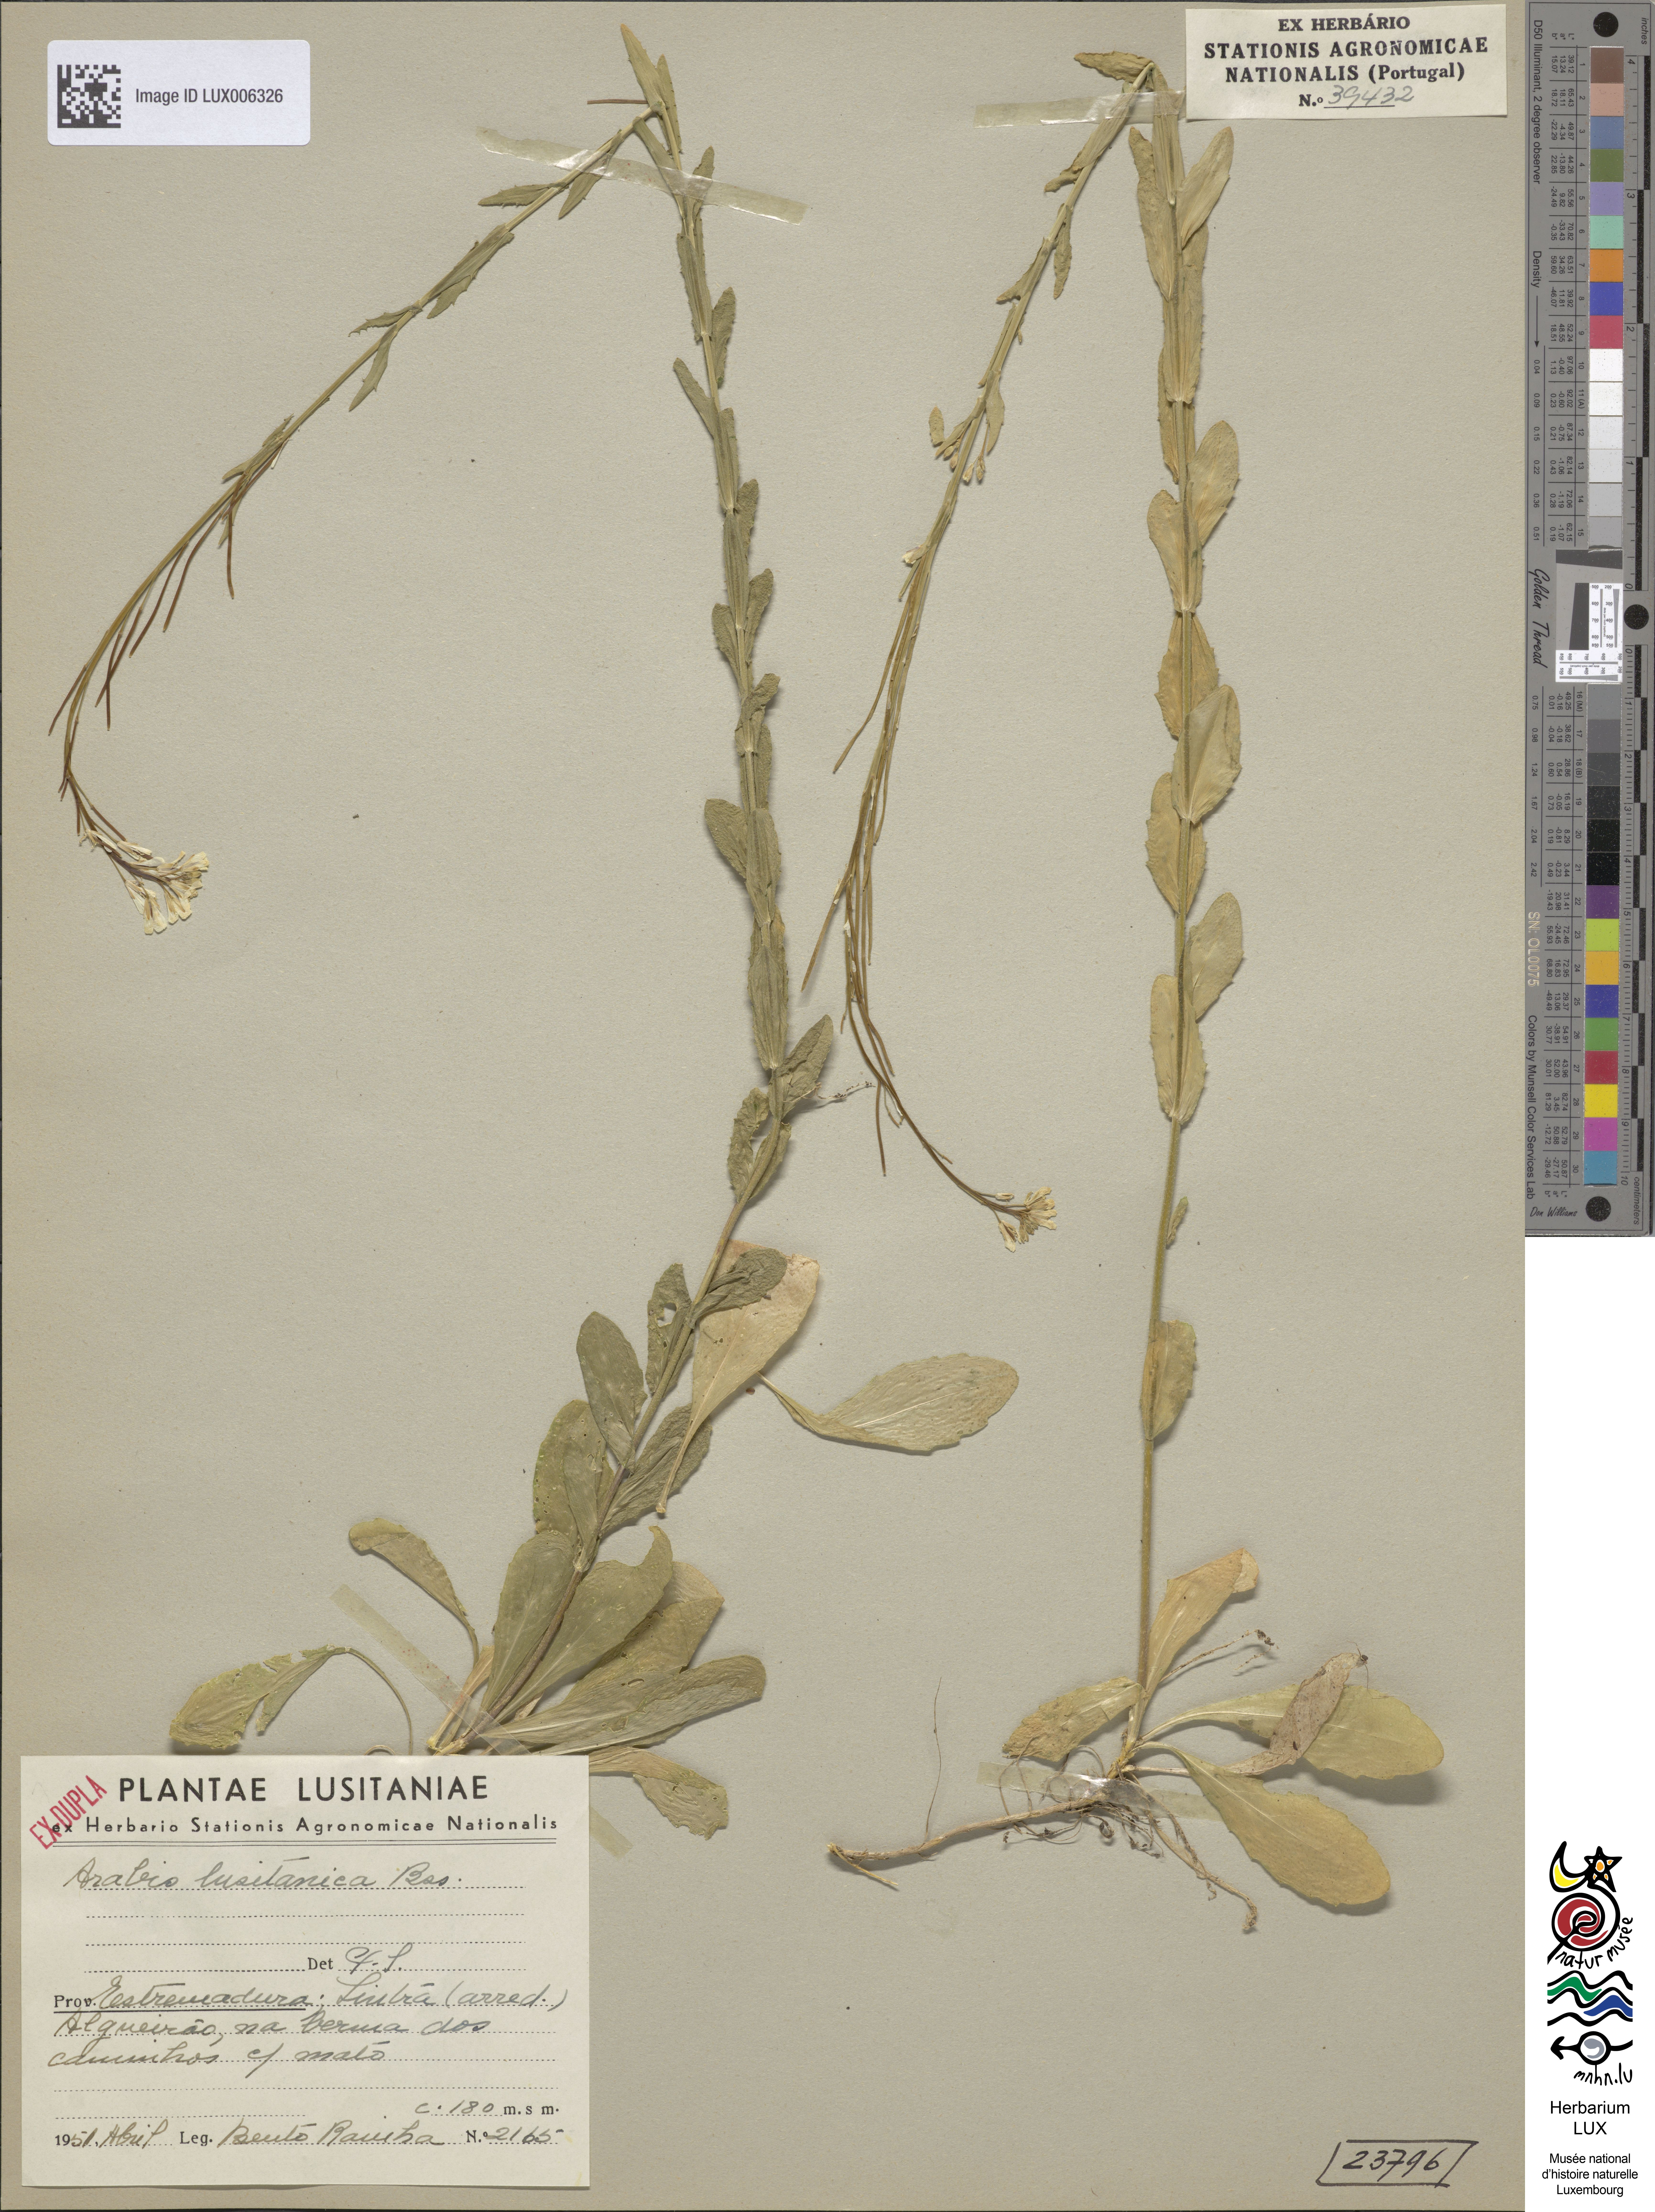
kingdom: Plantae
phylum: Tracheophyta
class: Magnoliopsida
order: Brassicales
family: Brassicaceae
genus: Arabis
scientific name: Arabis planisiliqua
